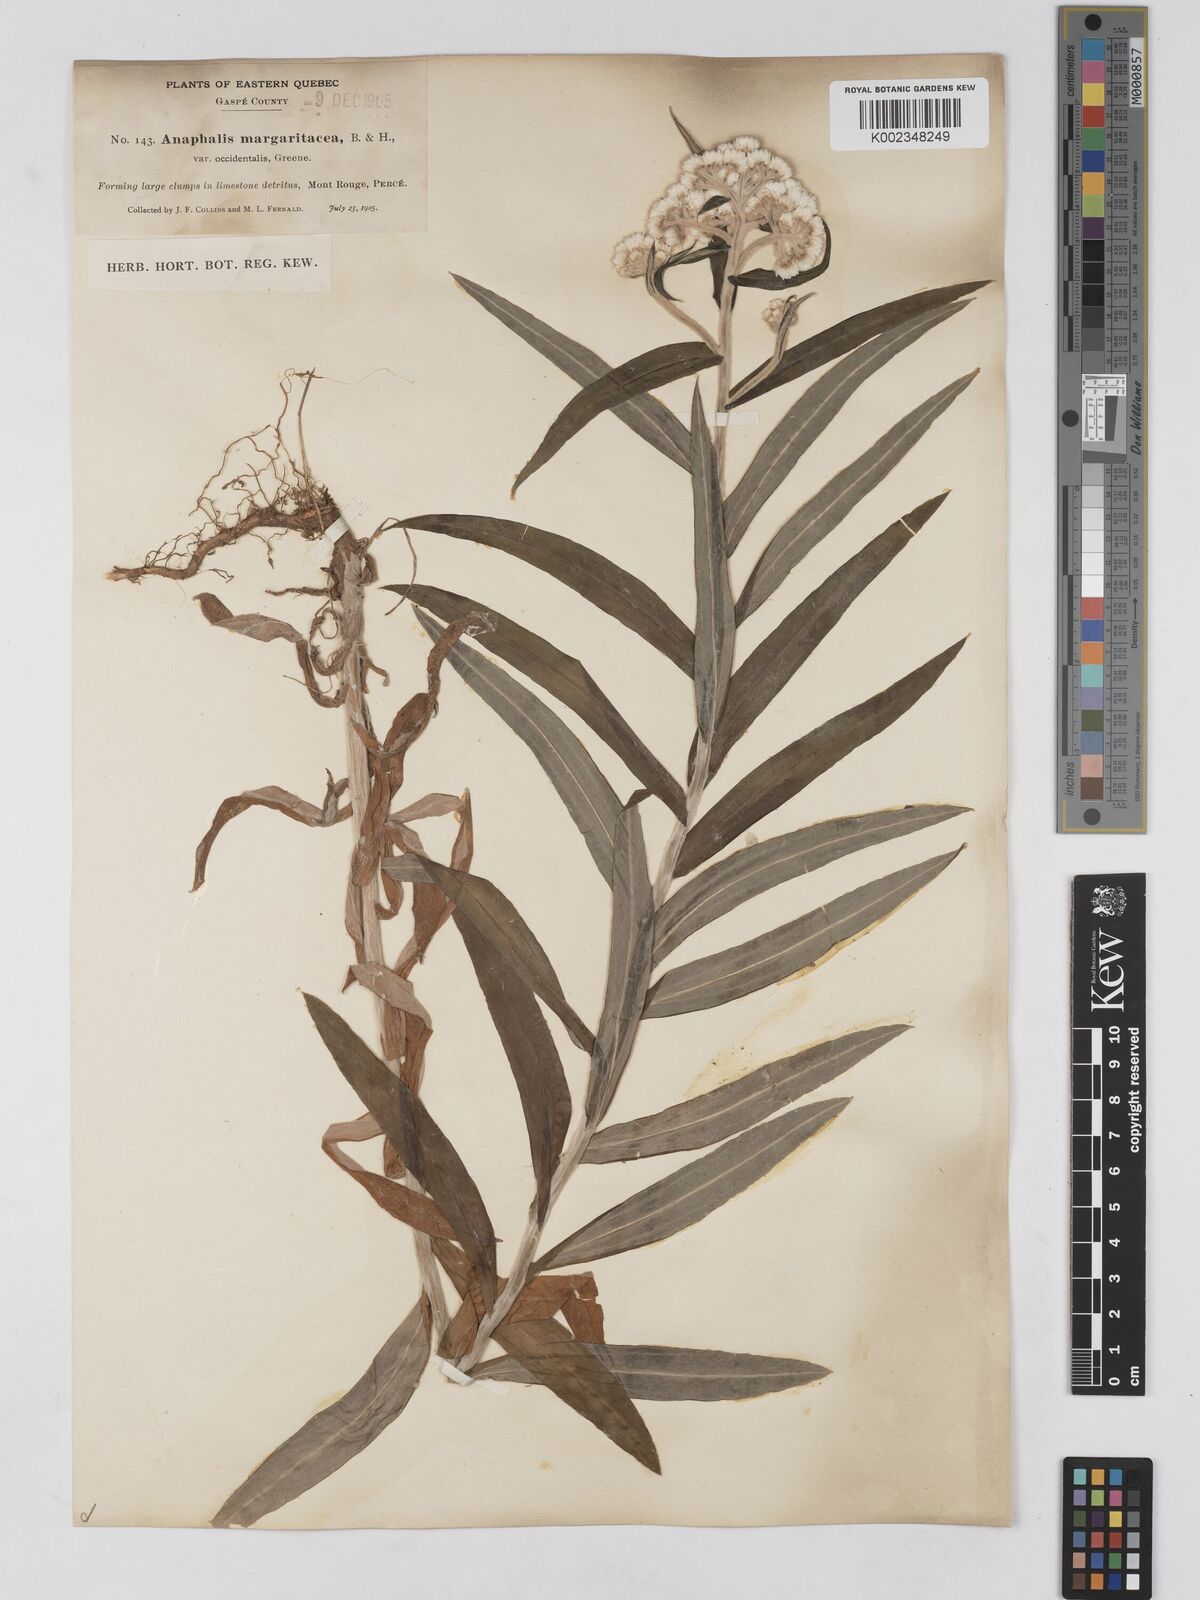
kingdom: Plantae
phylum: Tracheophyta
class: Magnoliopsida
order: Asterales
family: Asteraceae
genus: Anaphalis
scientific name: Anaphalis margaritacea
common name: Pearly everlasting
